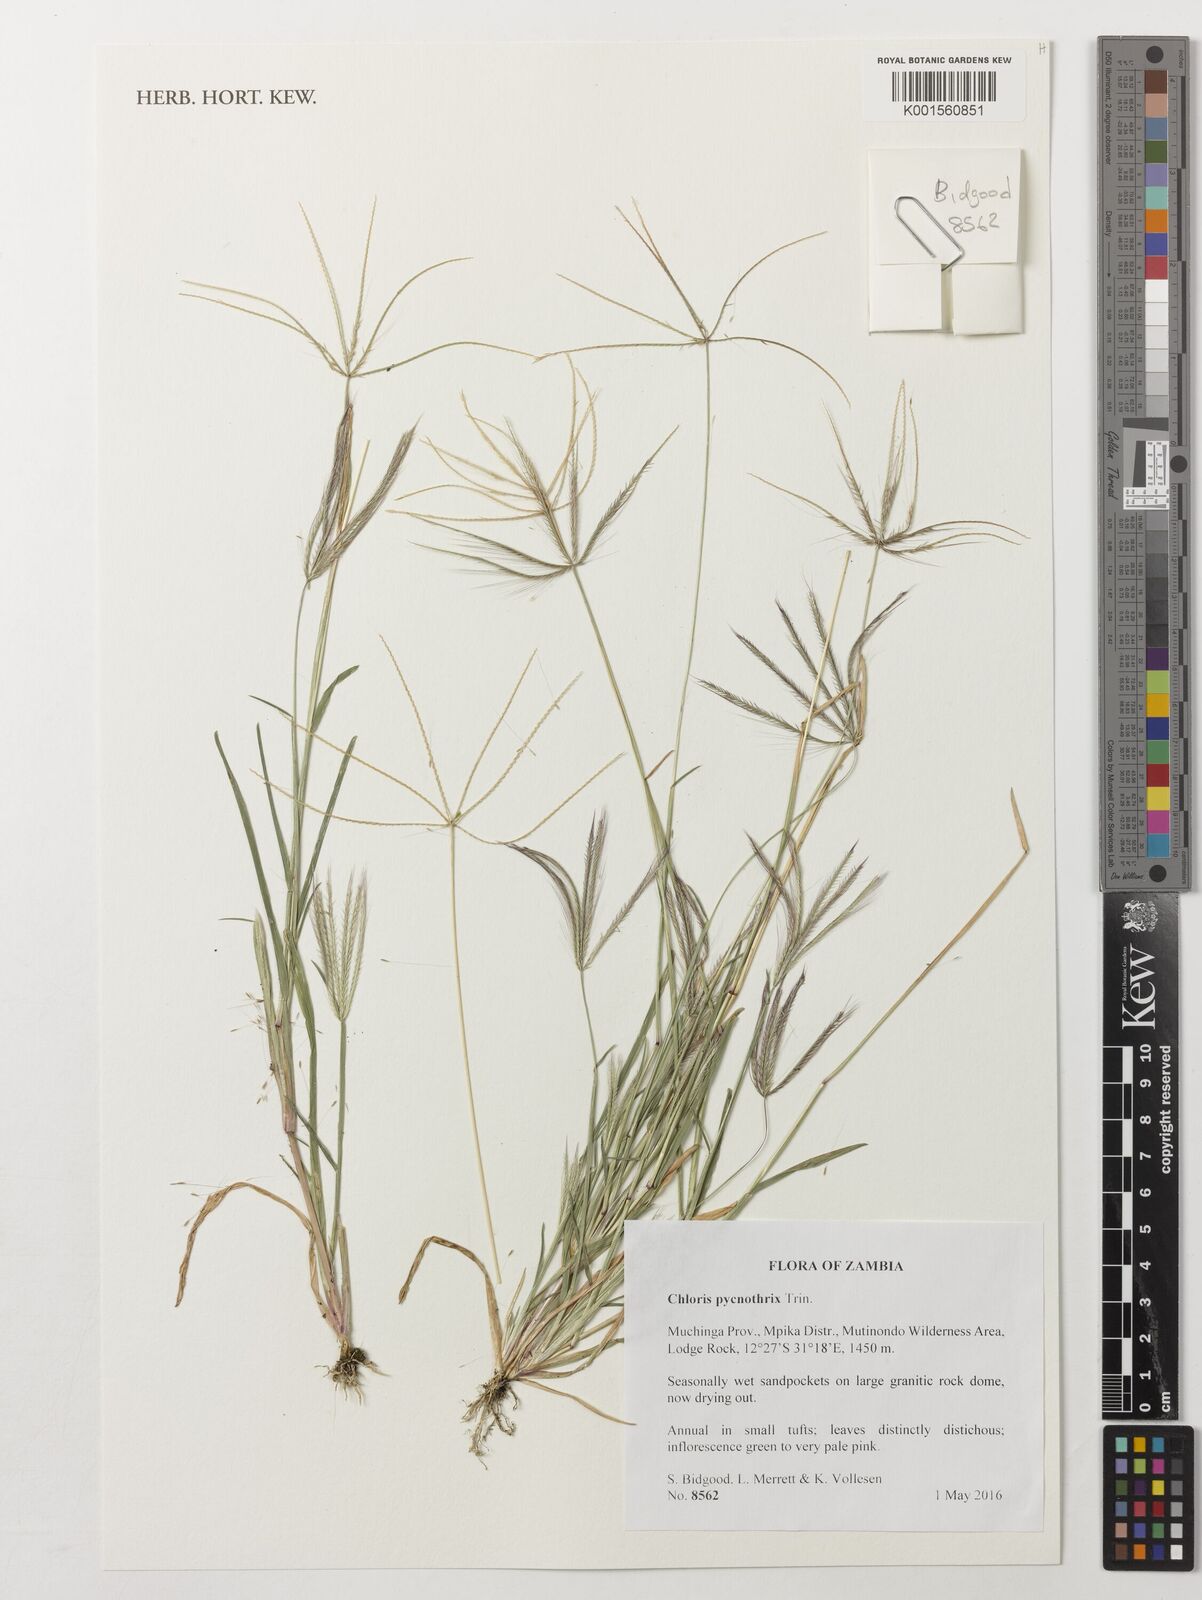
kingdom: Plantae
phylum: Tracheophyta
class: Liliopsida
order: Poales
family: Poaceae
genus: Chloris
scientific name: Chloris pycnothrix
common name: Spiderweb chloris
